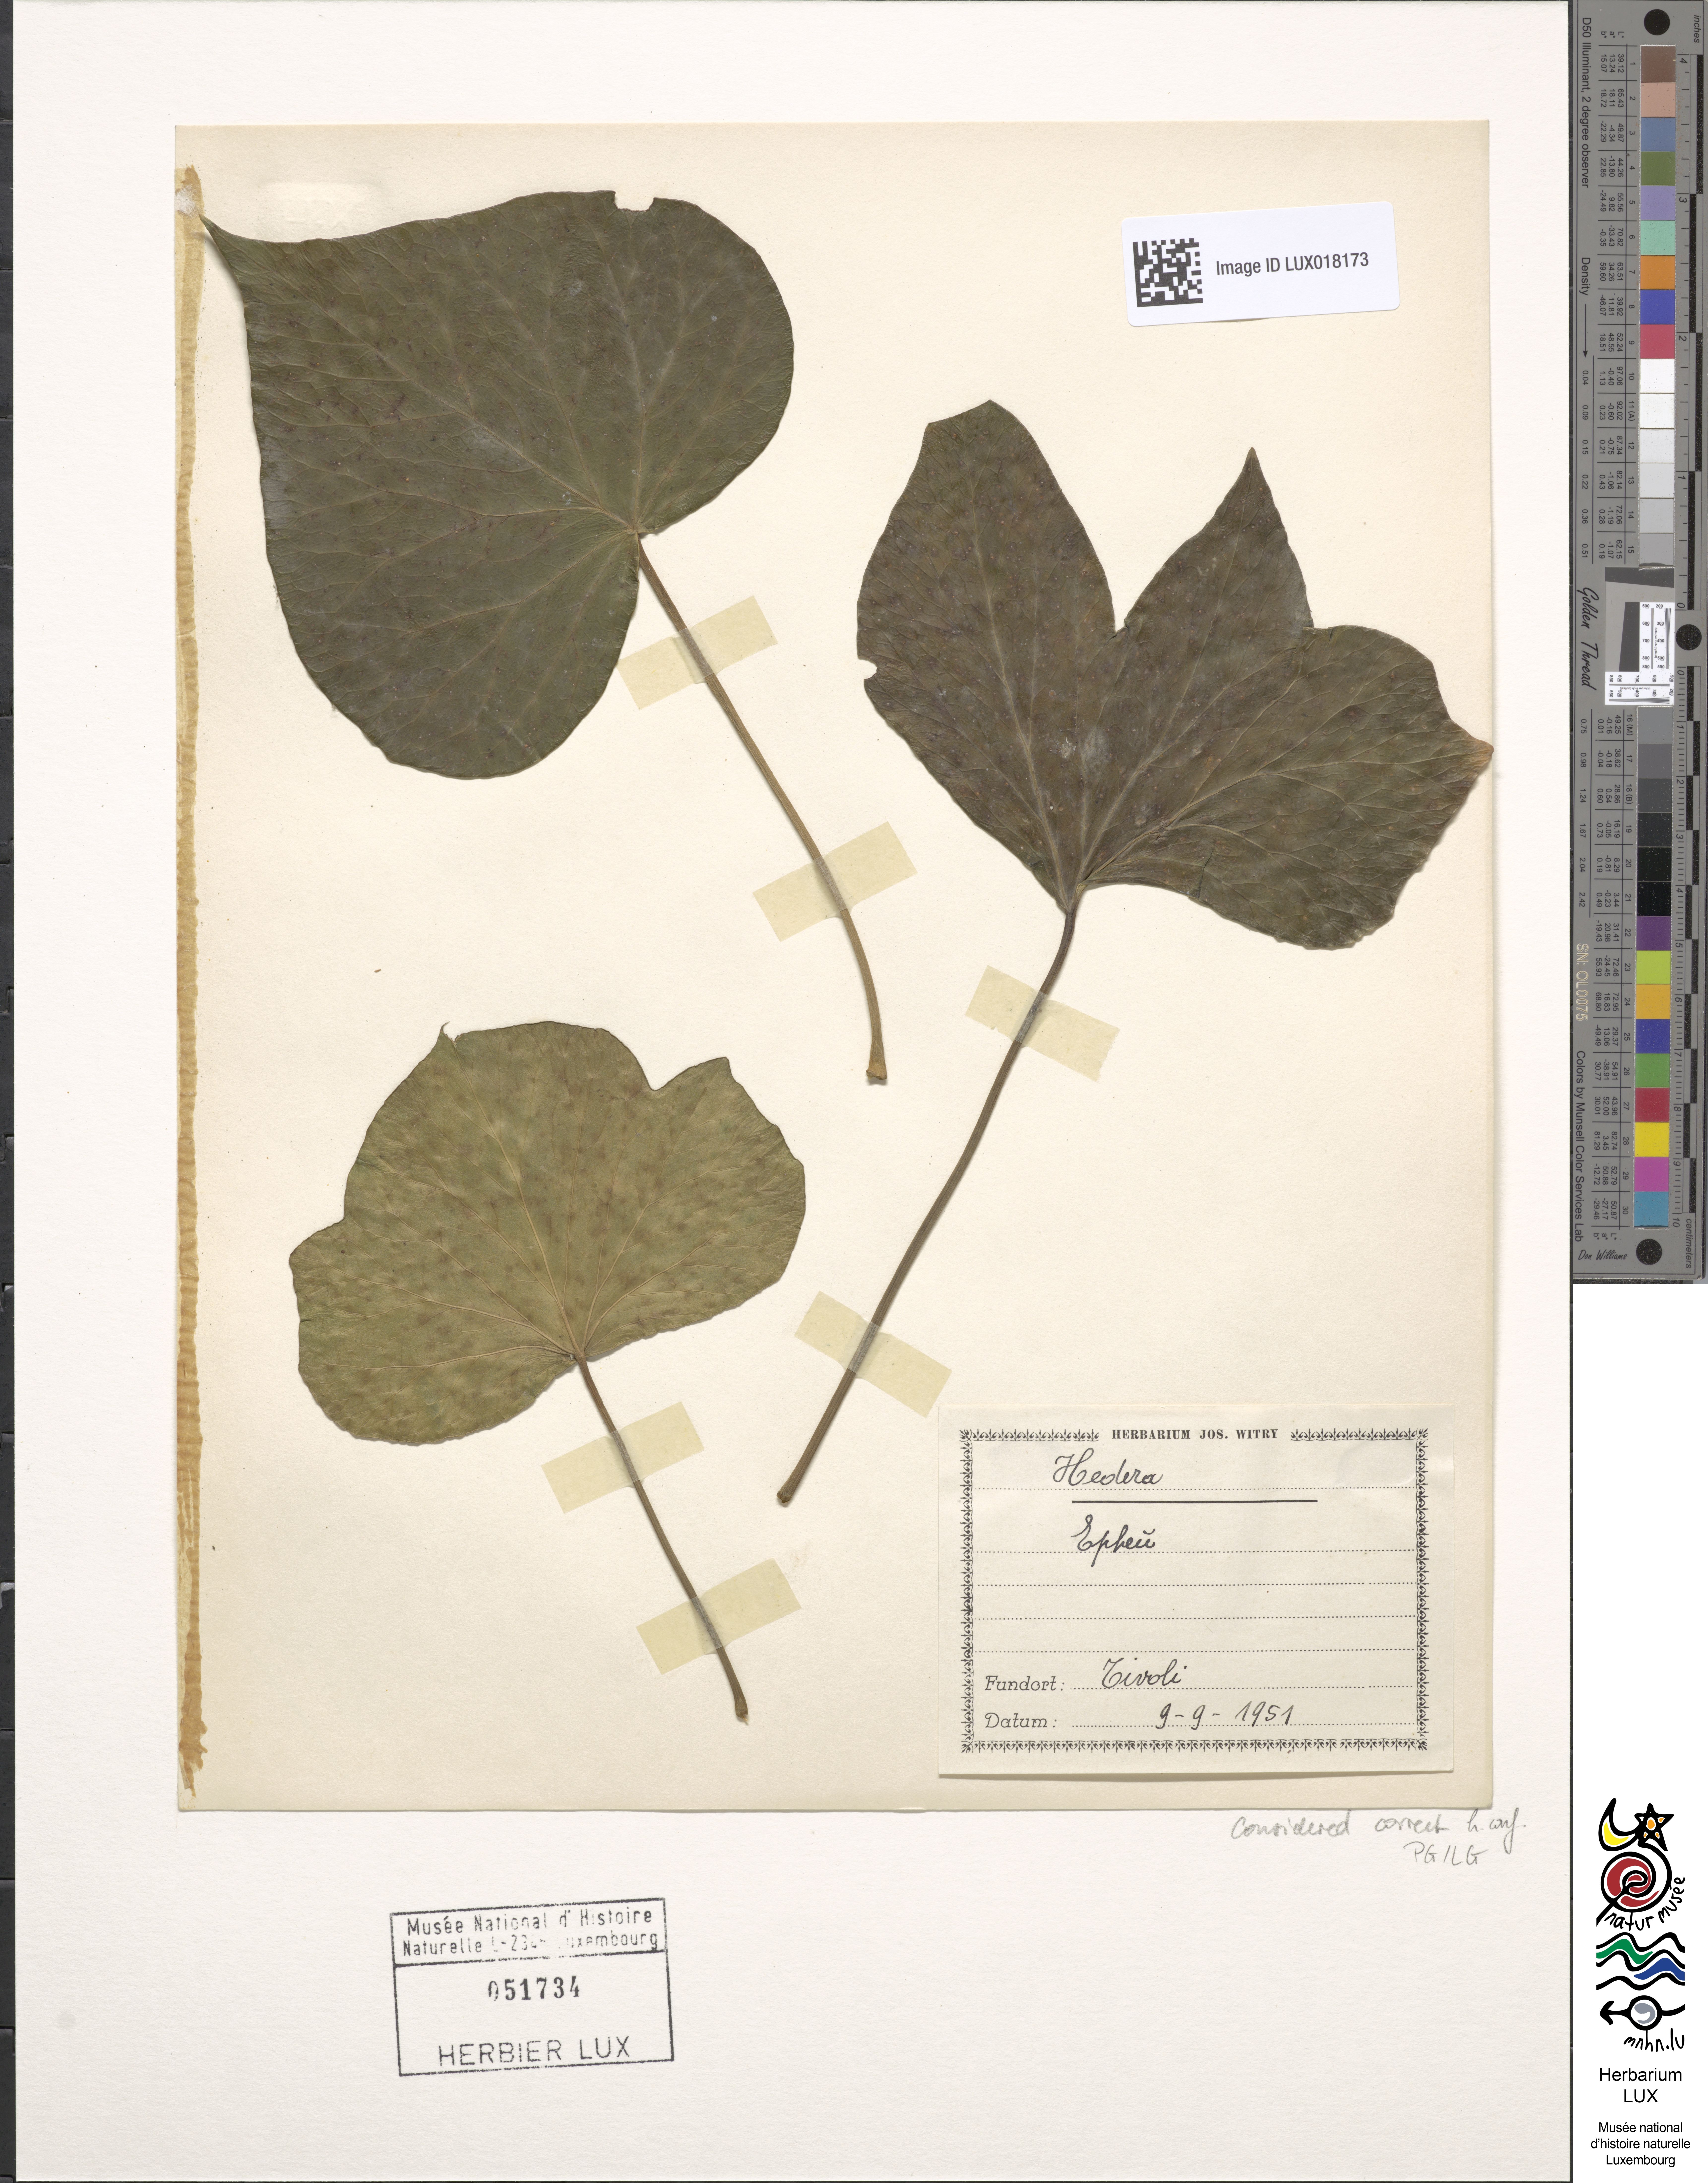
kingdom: Plantae
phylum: Tracheophyta
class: Magnoliopsida
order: Apiales
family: Araliaceae
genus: Hedera
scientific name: Hedera
